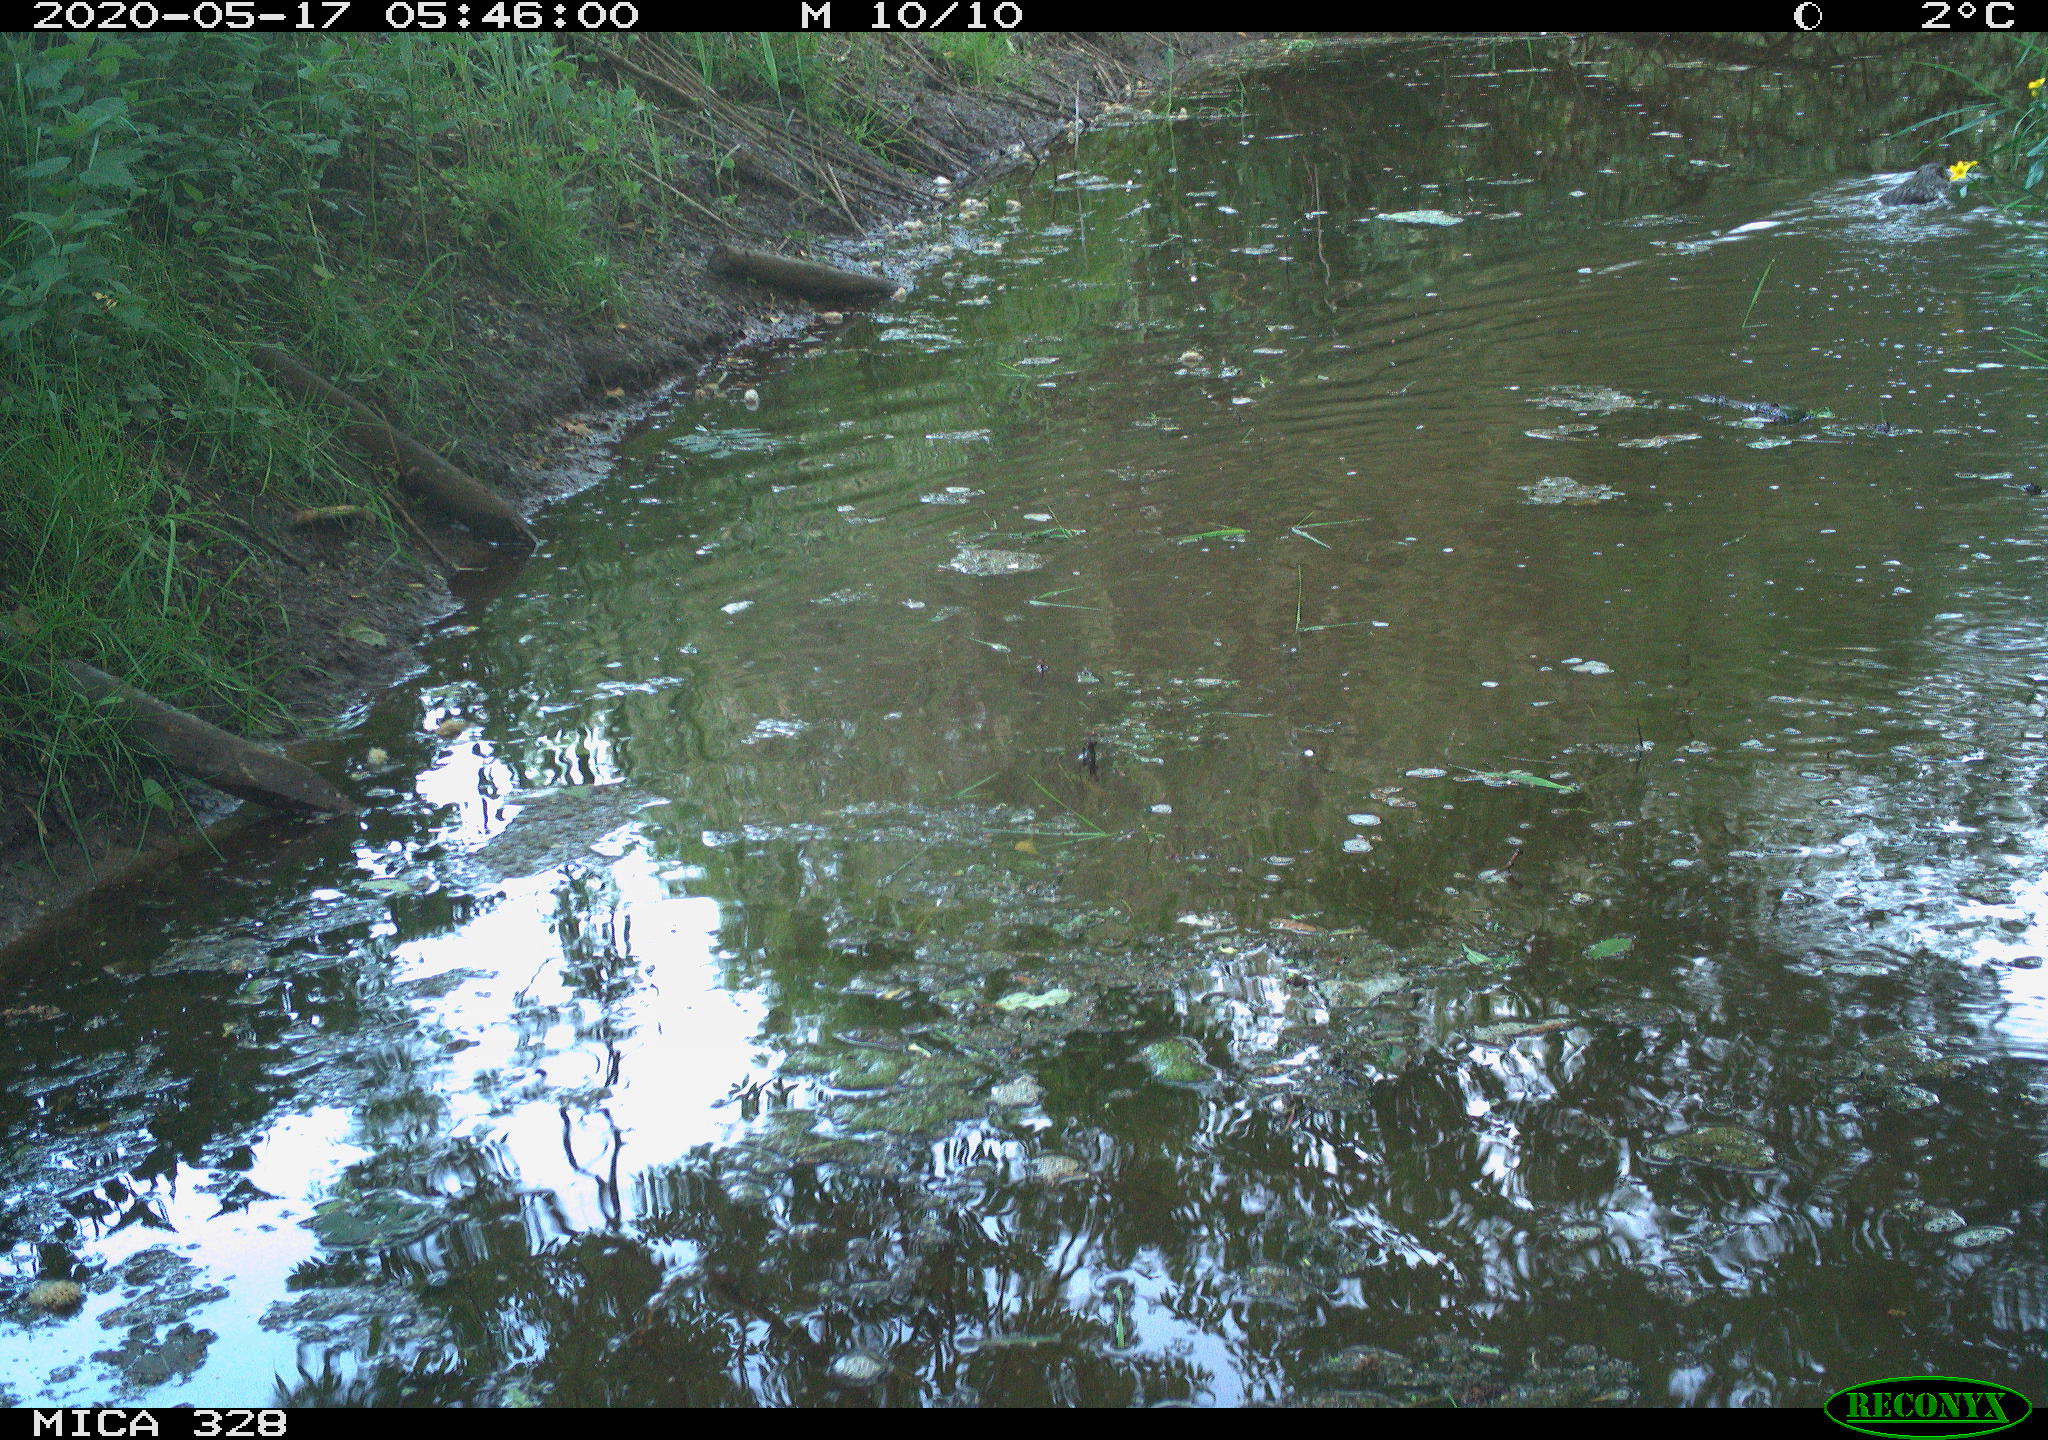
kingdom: Animalia
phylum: Chordata
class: Mammalia
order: Rodentia
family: Myocastoridae
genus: Myocastor
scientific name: Myocastor coypus
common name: Coypu
